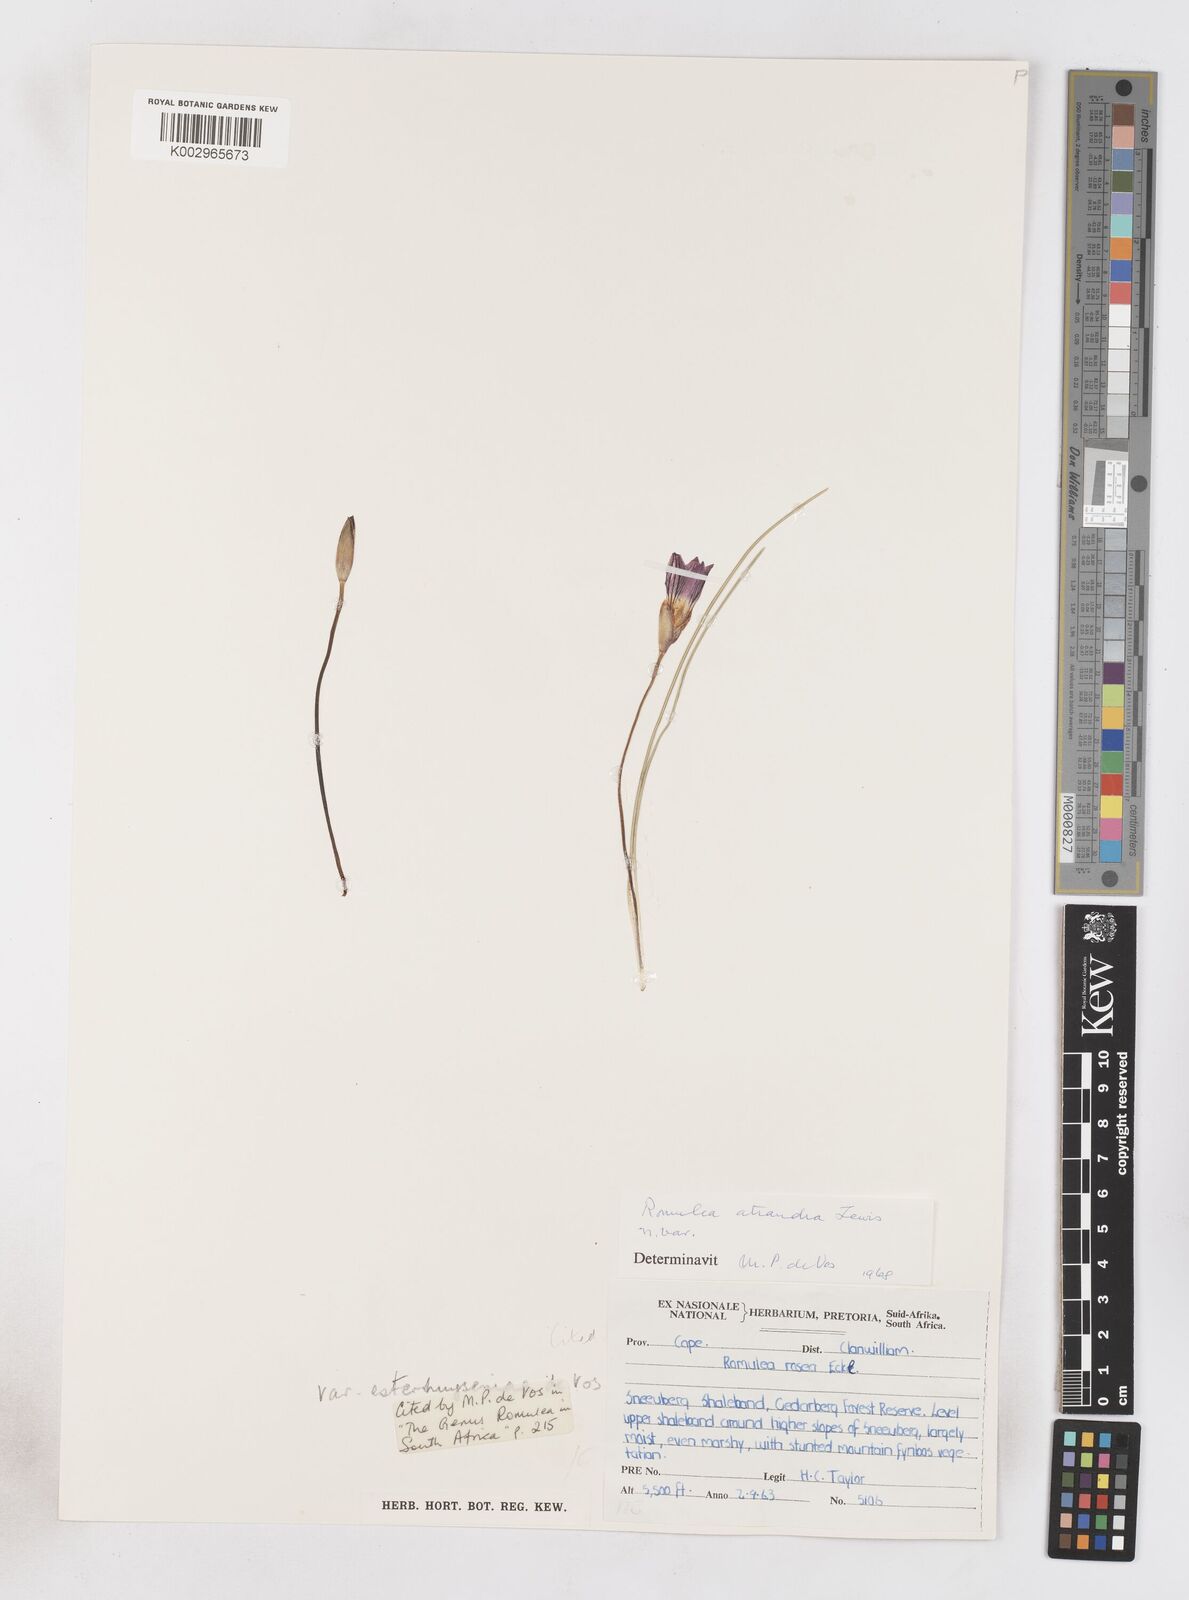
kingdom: Plantae
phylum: Tracheophyta
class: Liliopsida
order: Asparagales
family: Iridaceae
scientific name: Iridaceae
